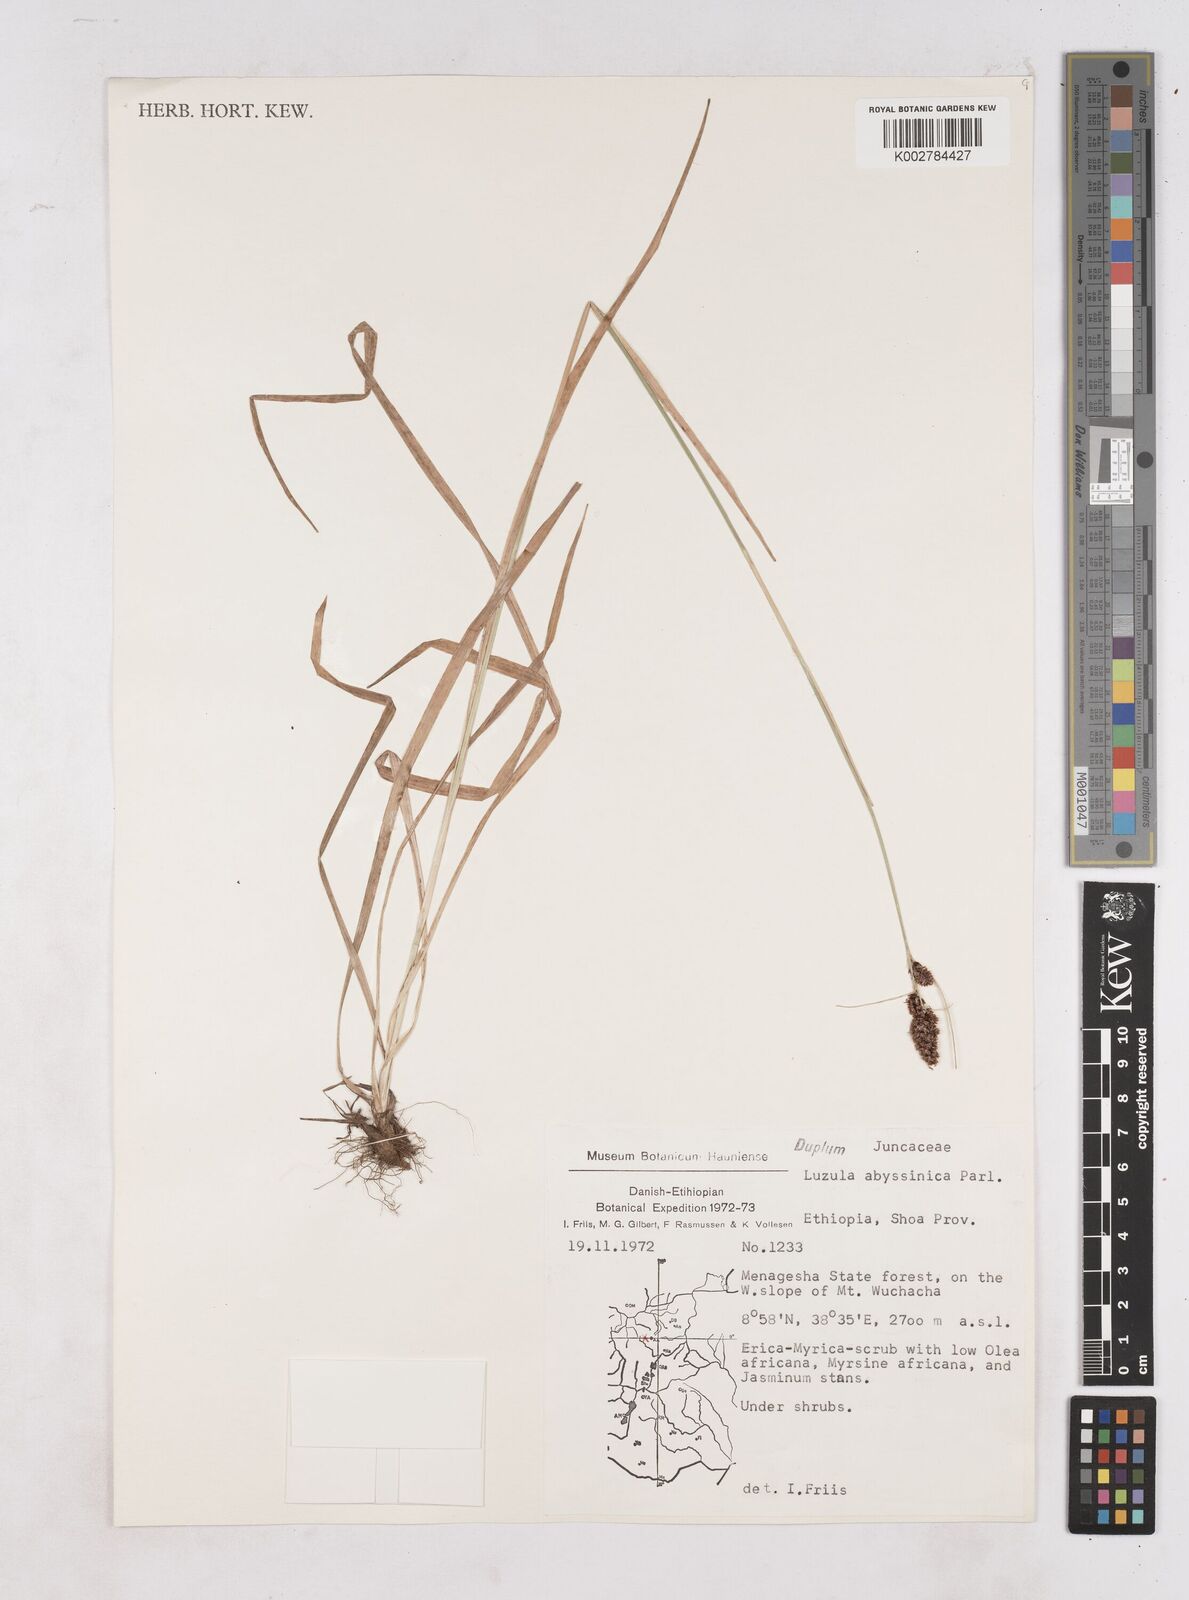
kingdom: Plantae
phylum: Tracheophyta
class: Liliopsida
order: Poales
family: Juncaceae
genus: Luzula
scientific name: Luzula abyssinica
